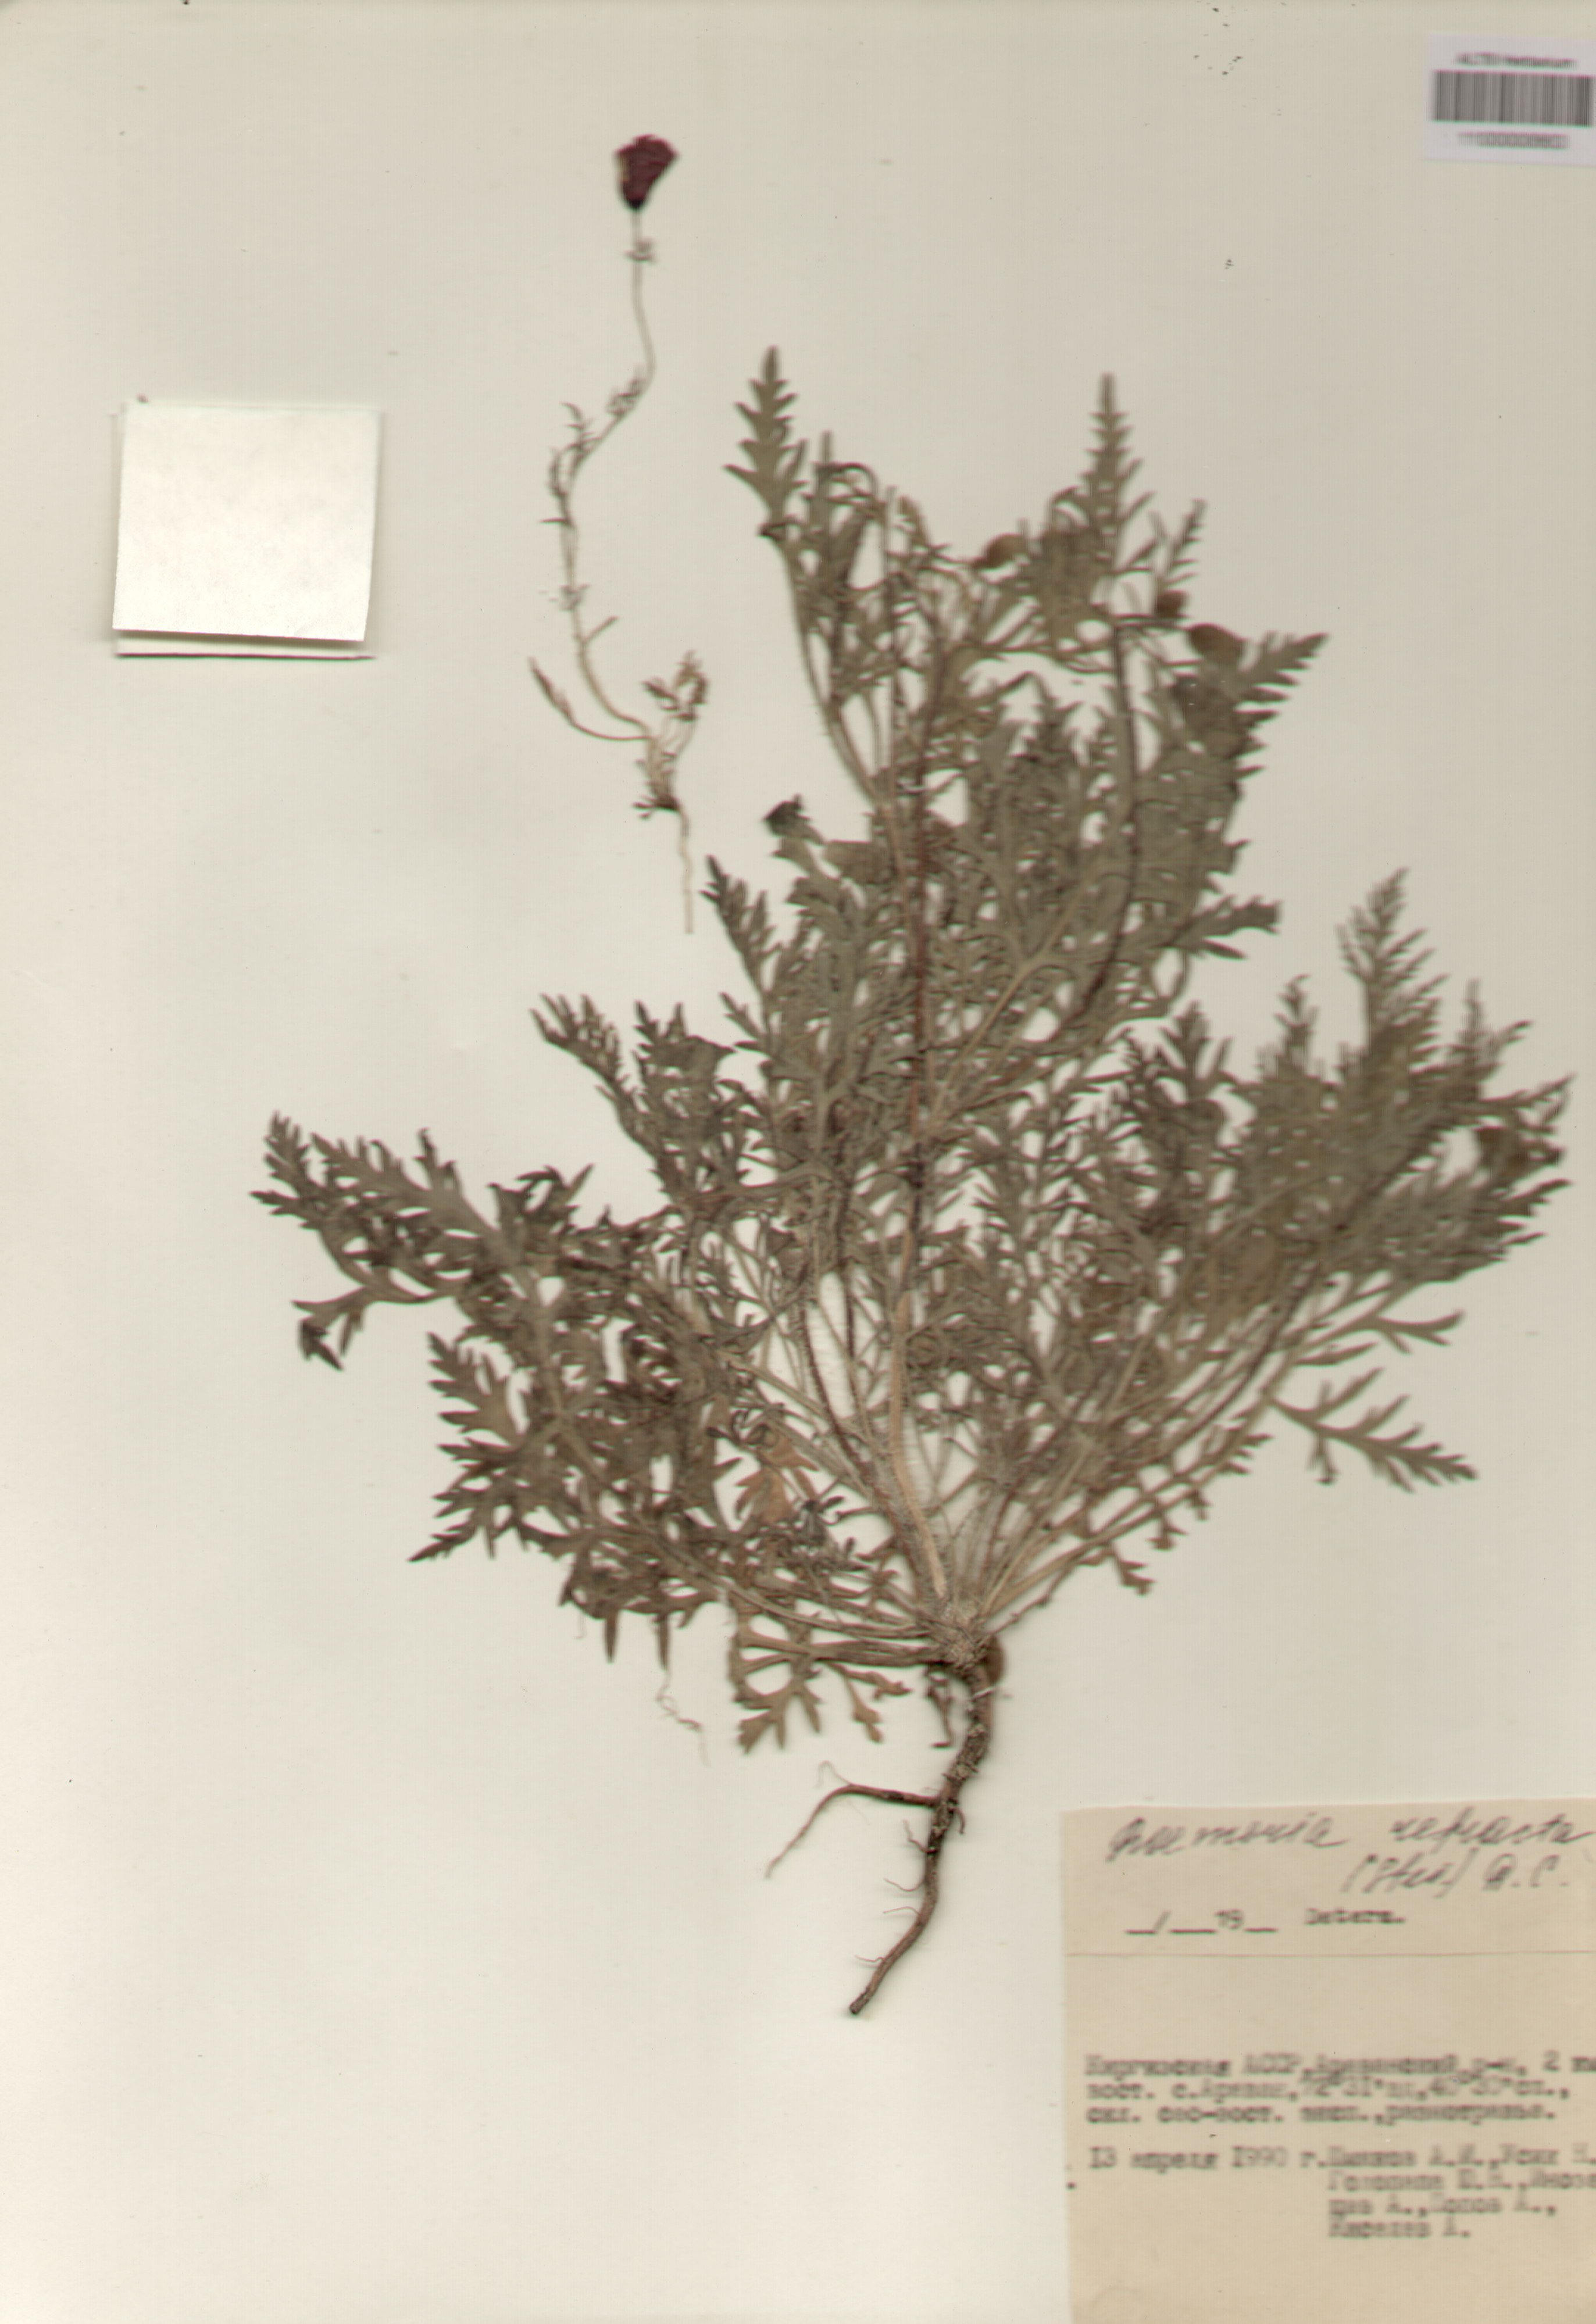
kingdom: Plantae
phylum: Tracheophyta
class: Magnoliopsida
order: Ranunculales
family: Papaveraceae
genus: Roemeria
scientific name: Roemeria refracta
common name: Spotted asian poppy
